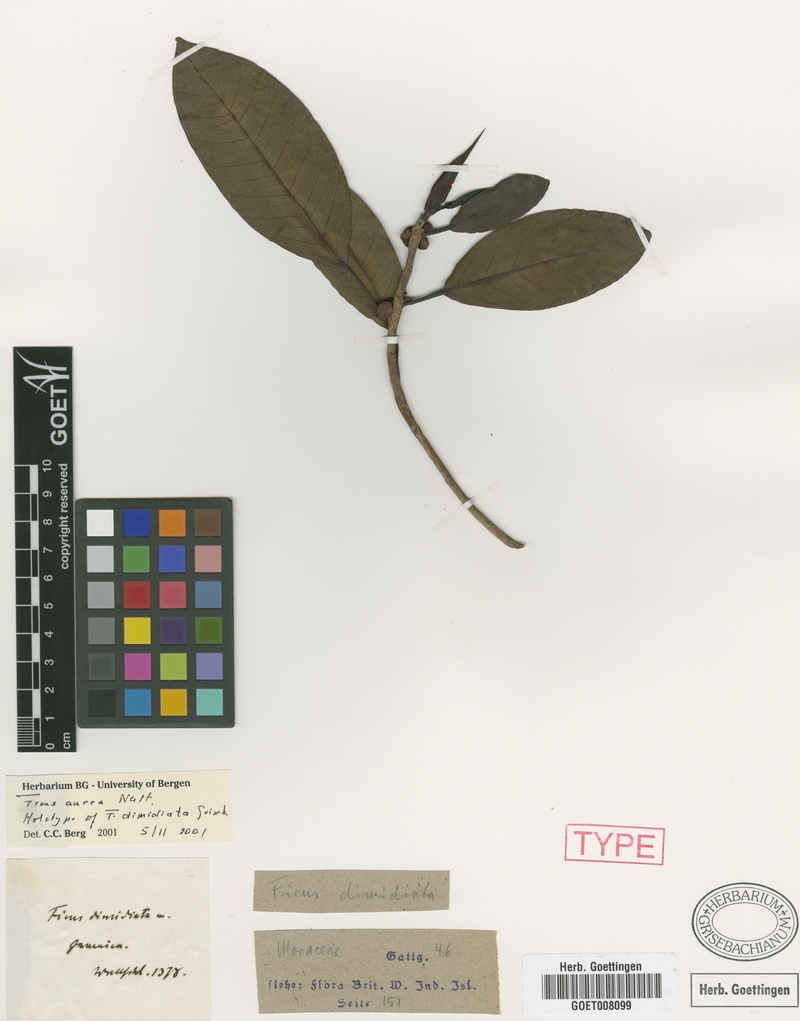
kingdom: Plantae
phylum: Tracheophyta
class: Magnoliopsida
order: Rosales
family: Moraceae
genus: Ficus
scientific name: Ficus aurea
